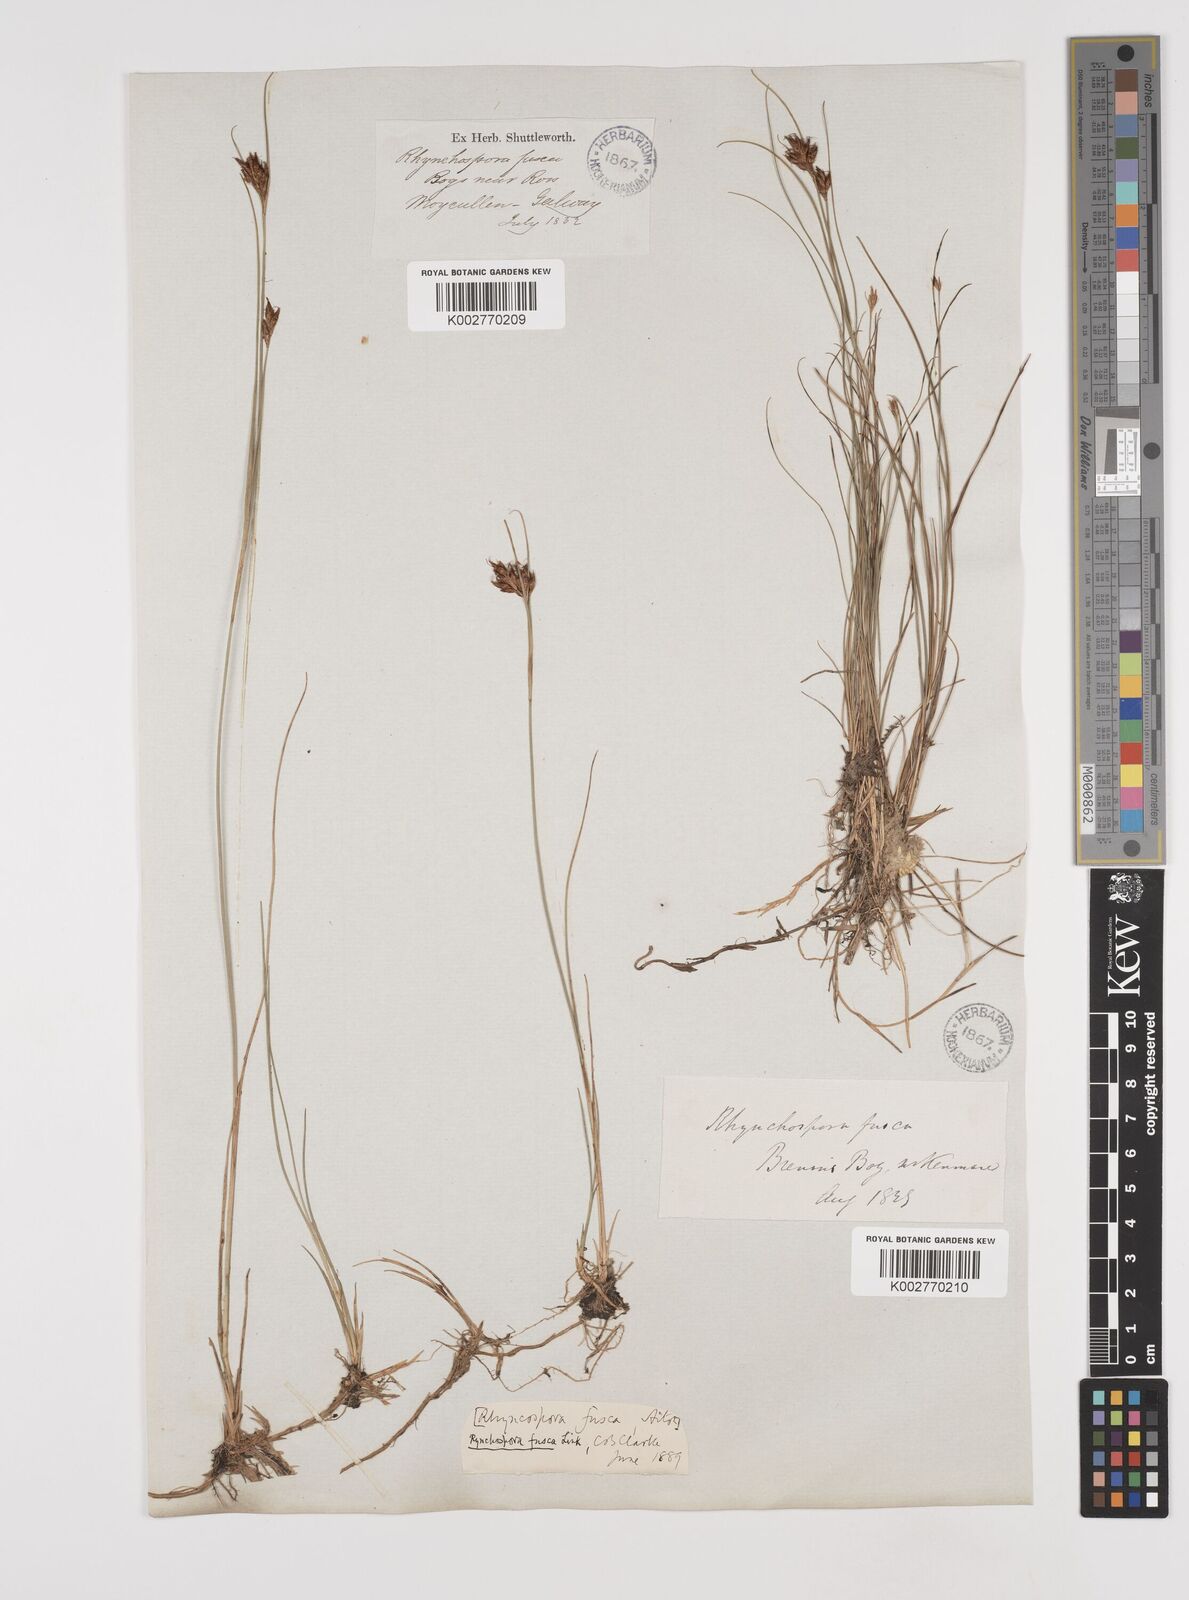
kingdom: Plantae
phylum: Tracheophyta
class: Liliopsida
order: Poales
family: Cyperaceae
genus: Rhynchospora
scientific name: Rhynchospora fusca
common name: Brown beak-sedge
